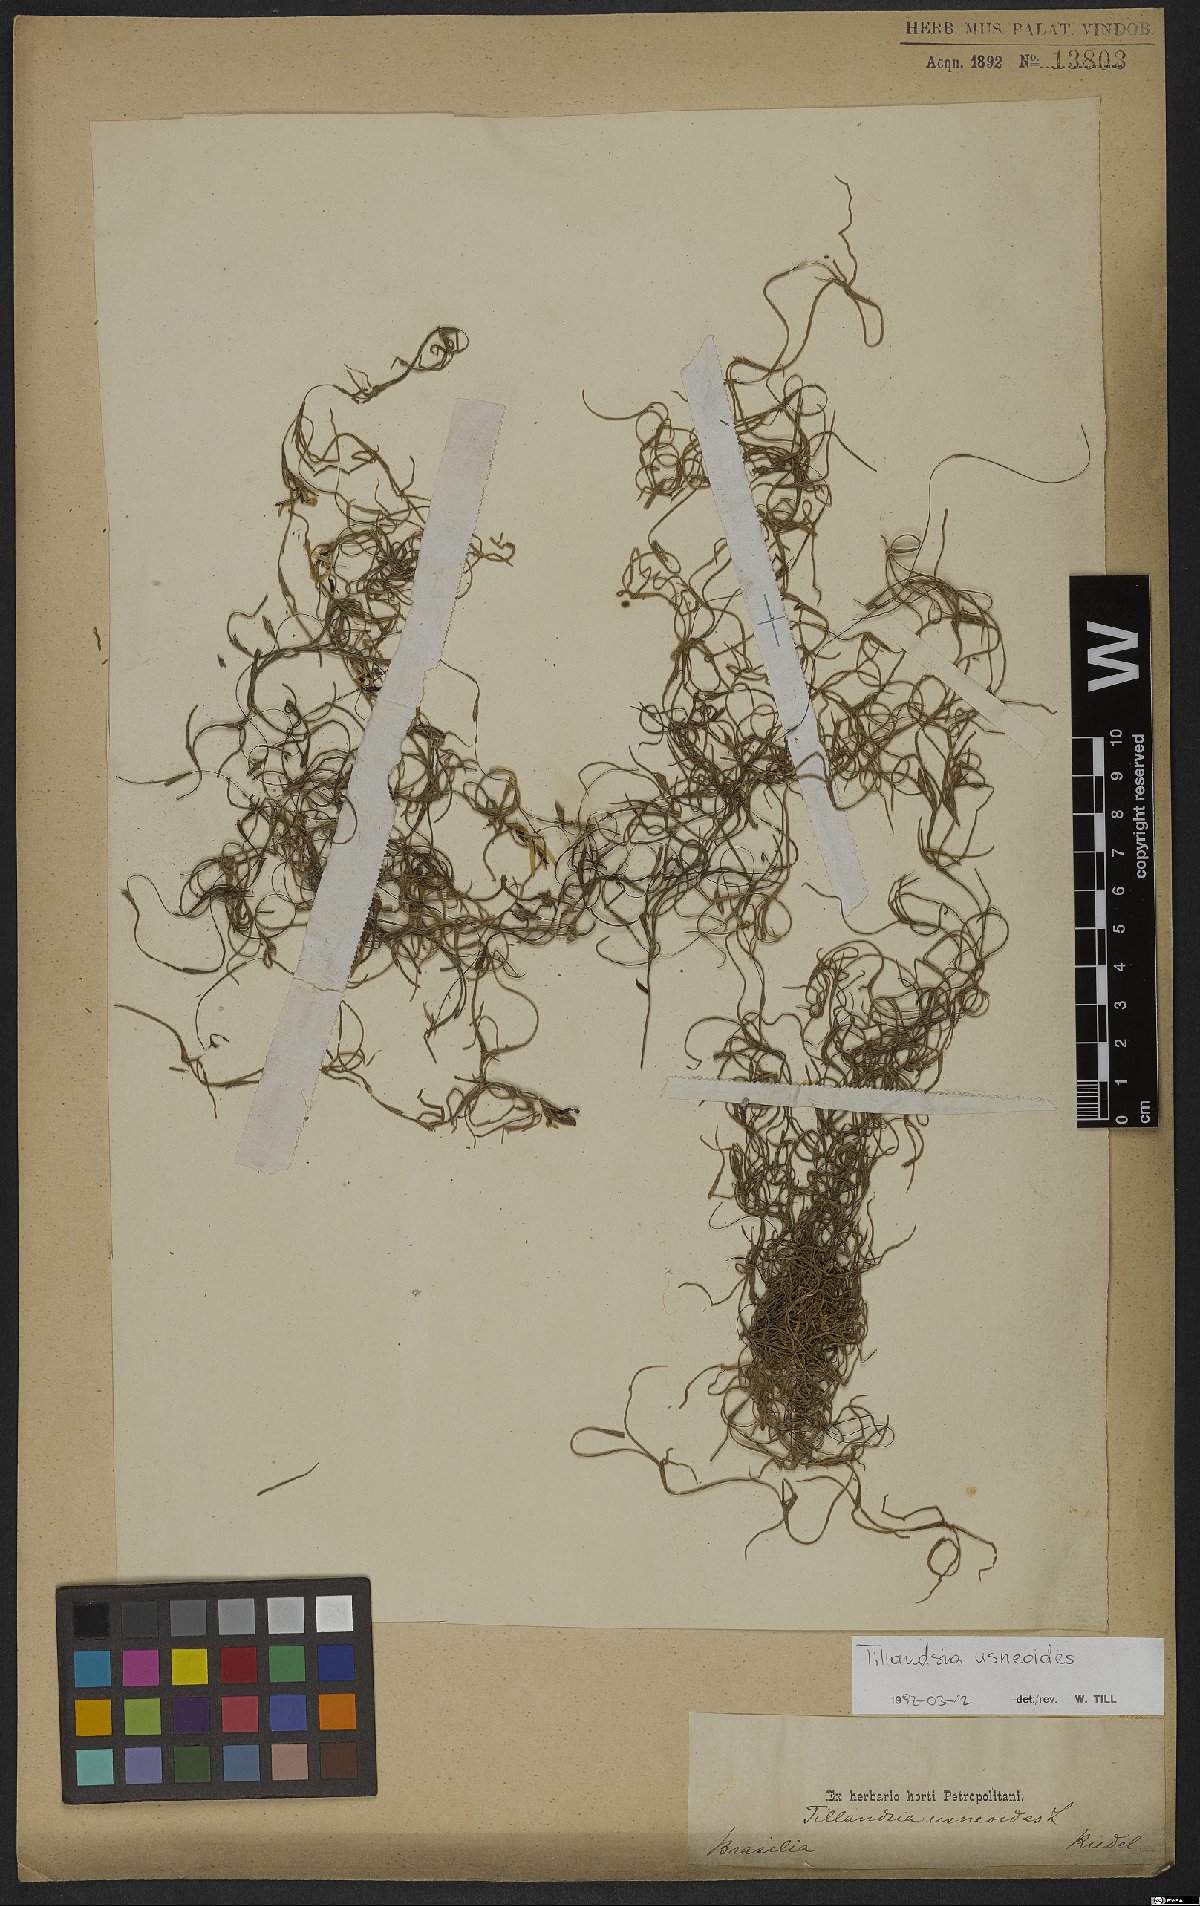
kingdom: Plantae
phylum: Tracheophyta
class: Liliopsida
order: Poales
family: Bromeliaceae
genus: Tillandsia
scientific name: Tillandsia usneoides
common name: Spanish moss
